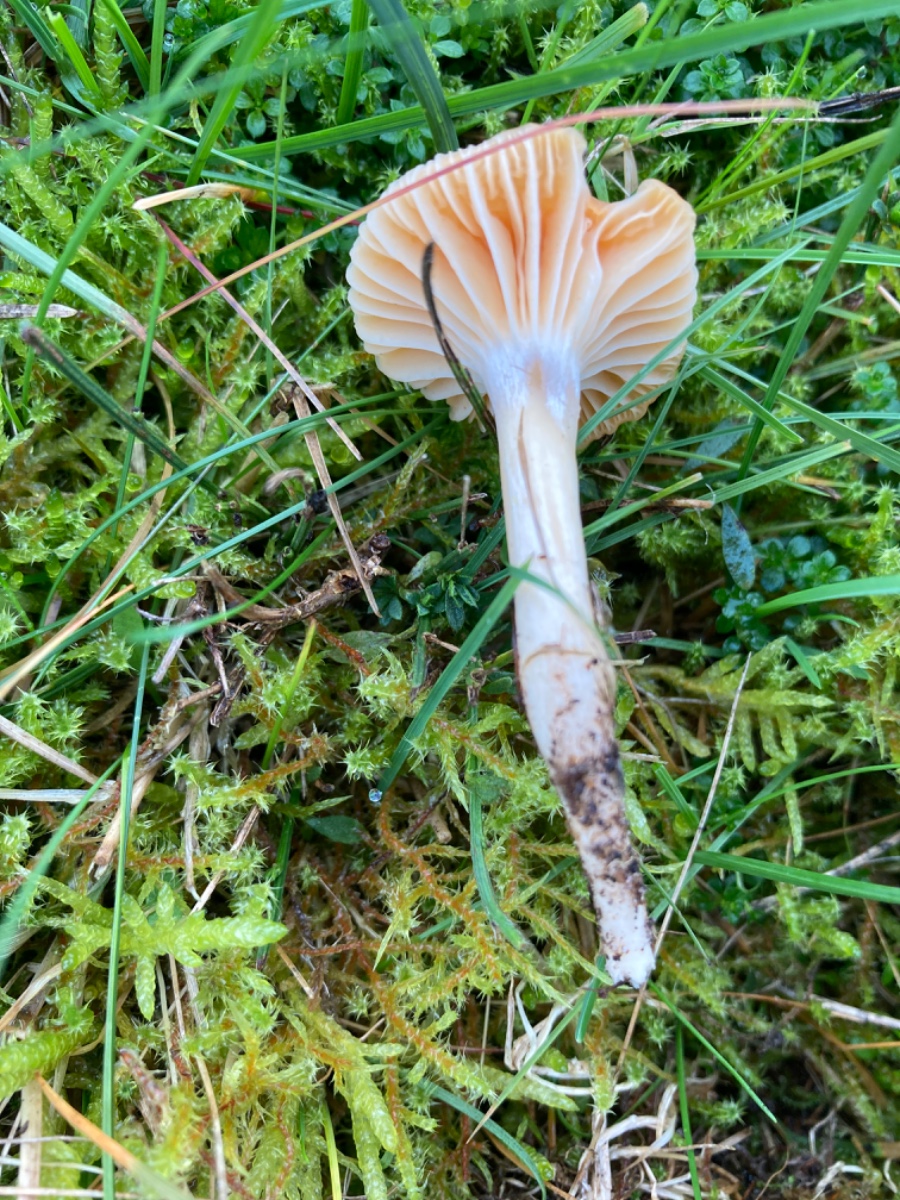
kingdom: Fungi
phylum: Basidiomycota
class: Agaricomycetes
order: Agaricales
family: Hygrophoraceae
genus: Cuphophyllus
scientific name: Cuphophyllus pratensis
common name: eng-vokshat
